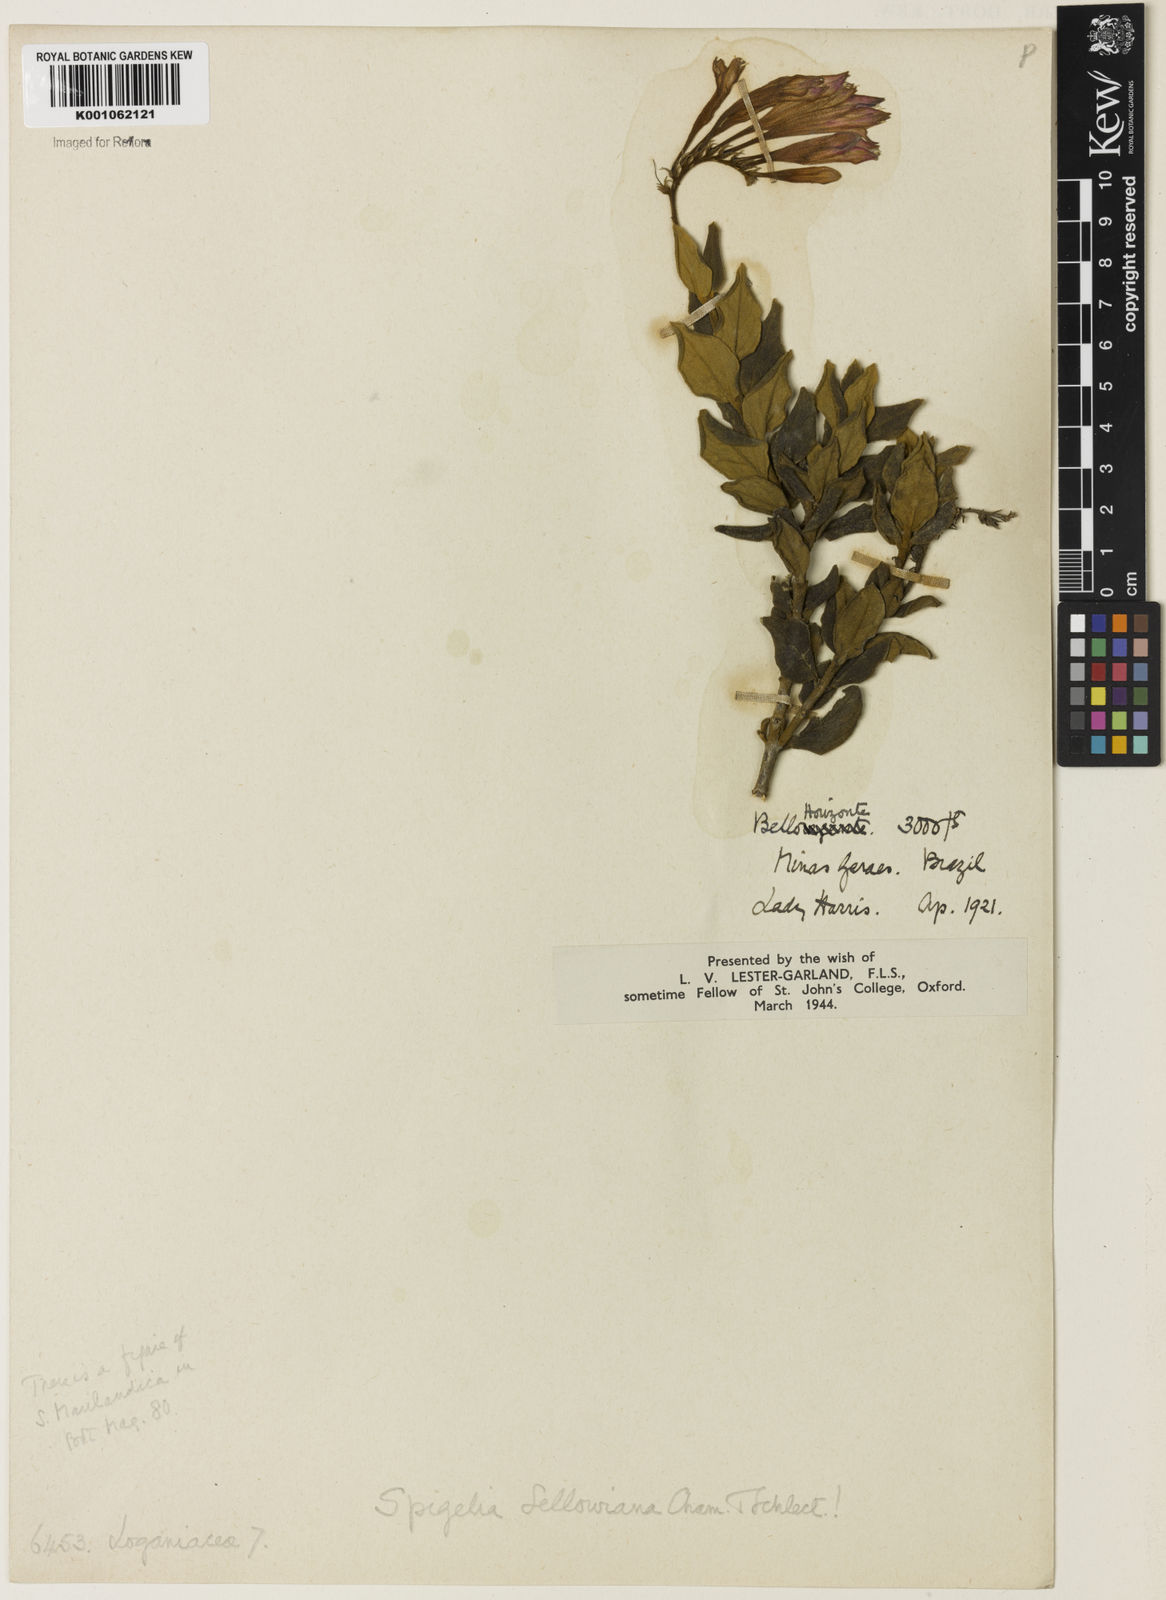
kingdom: Plantae
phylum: Tracheophyta
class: Magnoliopsida
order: Gentianales
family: Loganiaceae
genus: Spigelia
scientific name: Spigelia sellowiana
